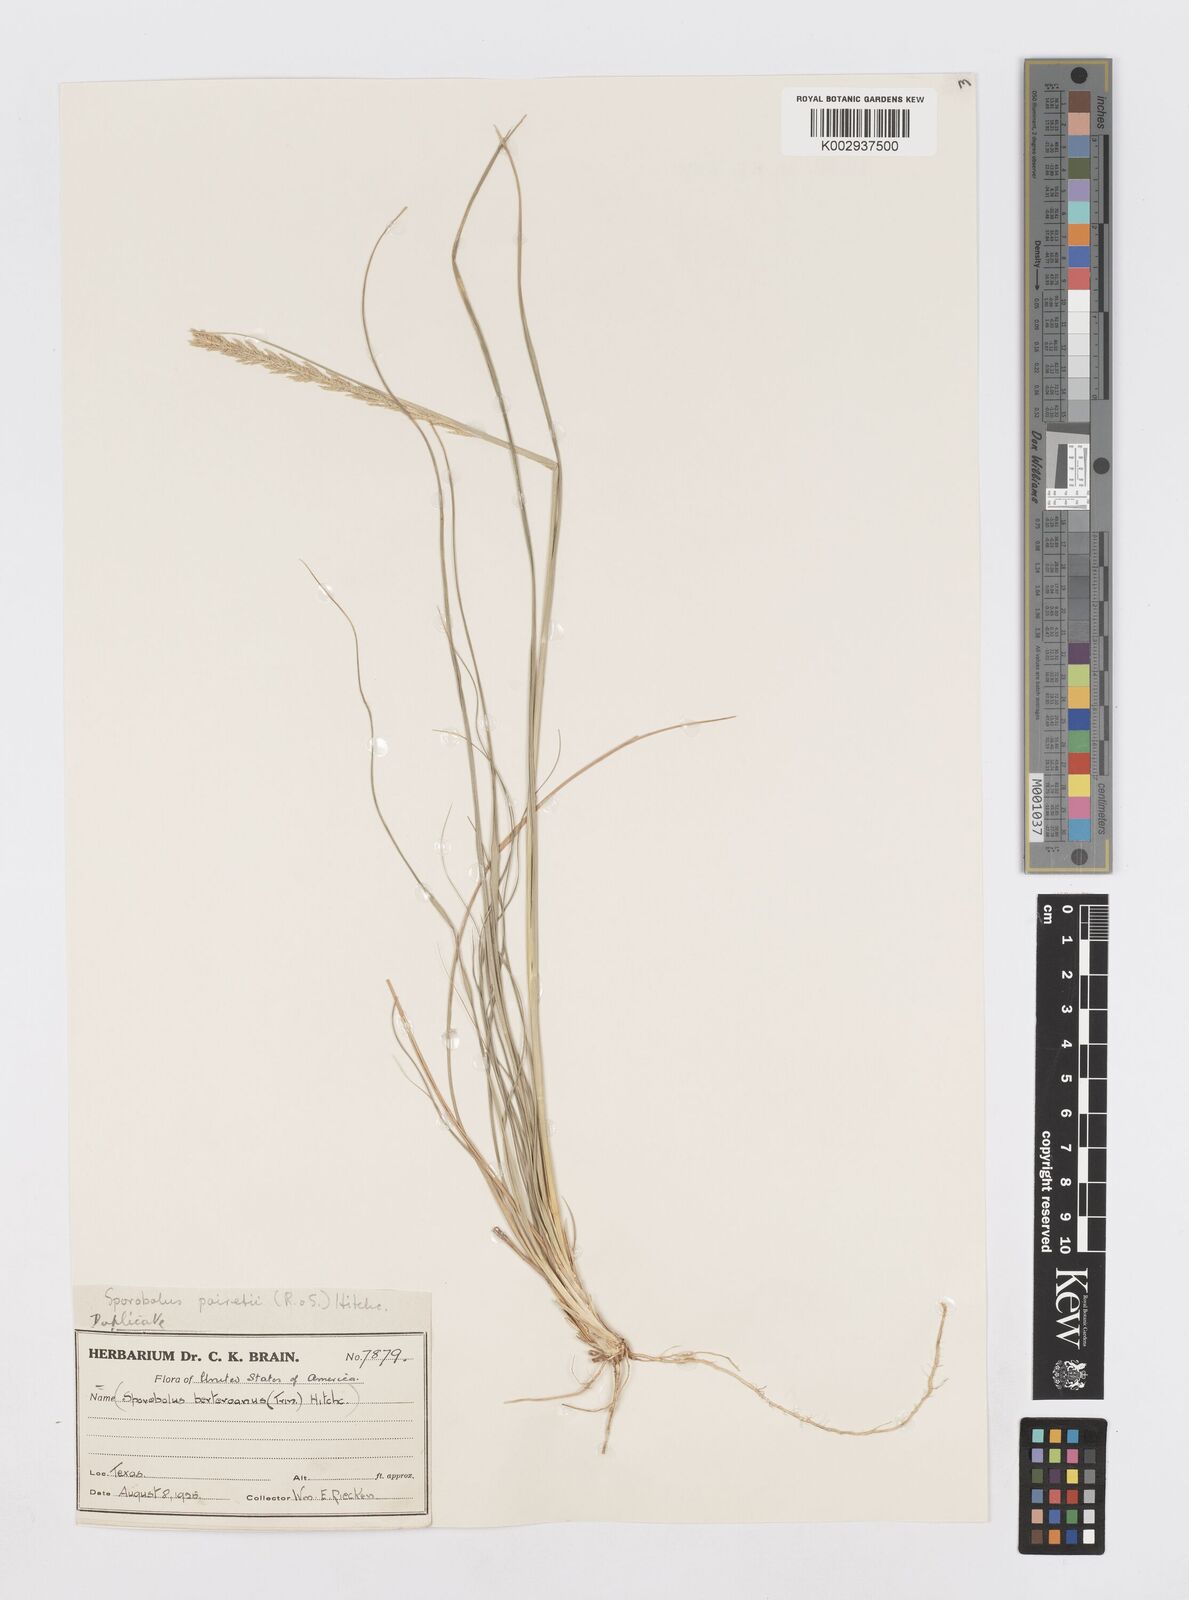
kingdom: Plantae
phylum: Tracheophyta
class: Liliopsida
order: Poales
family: Poaceae
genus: Sporobolus
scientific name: Sporobolus junceus
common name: Lizard grass
